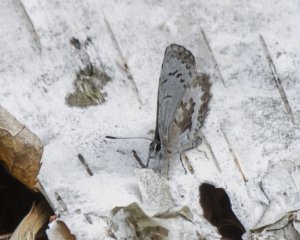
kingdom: Animalia
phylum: Arthropoda
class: Insecta
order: Lepidoptera
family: Lycaenidae
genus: Celastrina
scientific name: Celastrina lucia
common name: Northern Spring Azure
